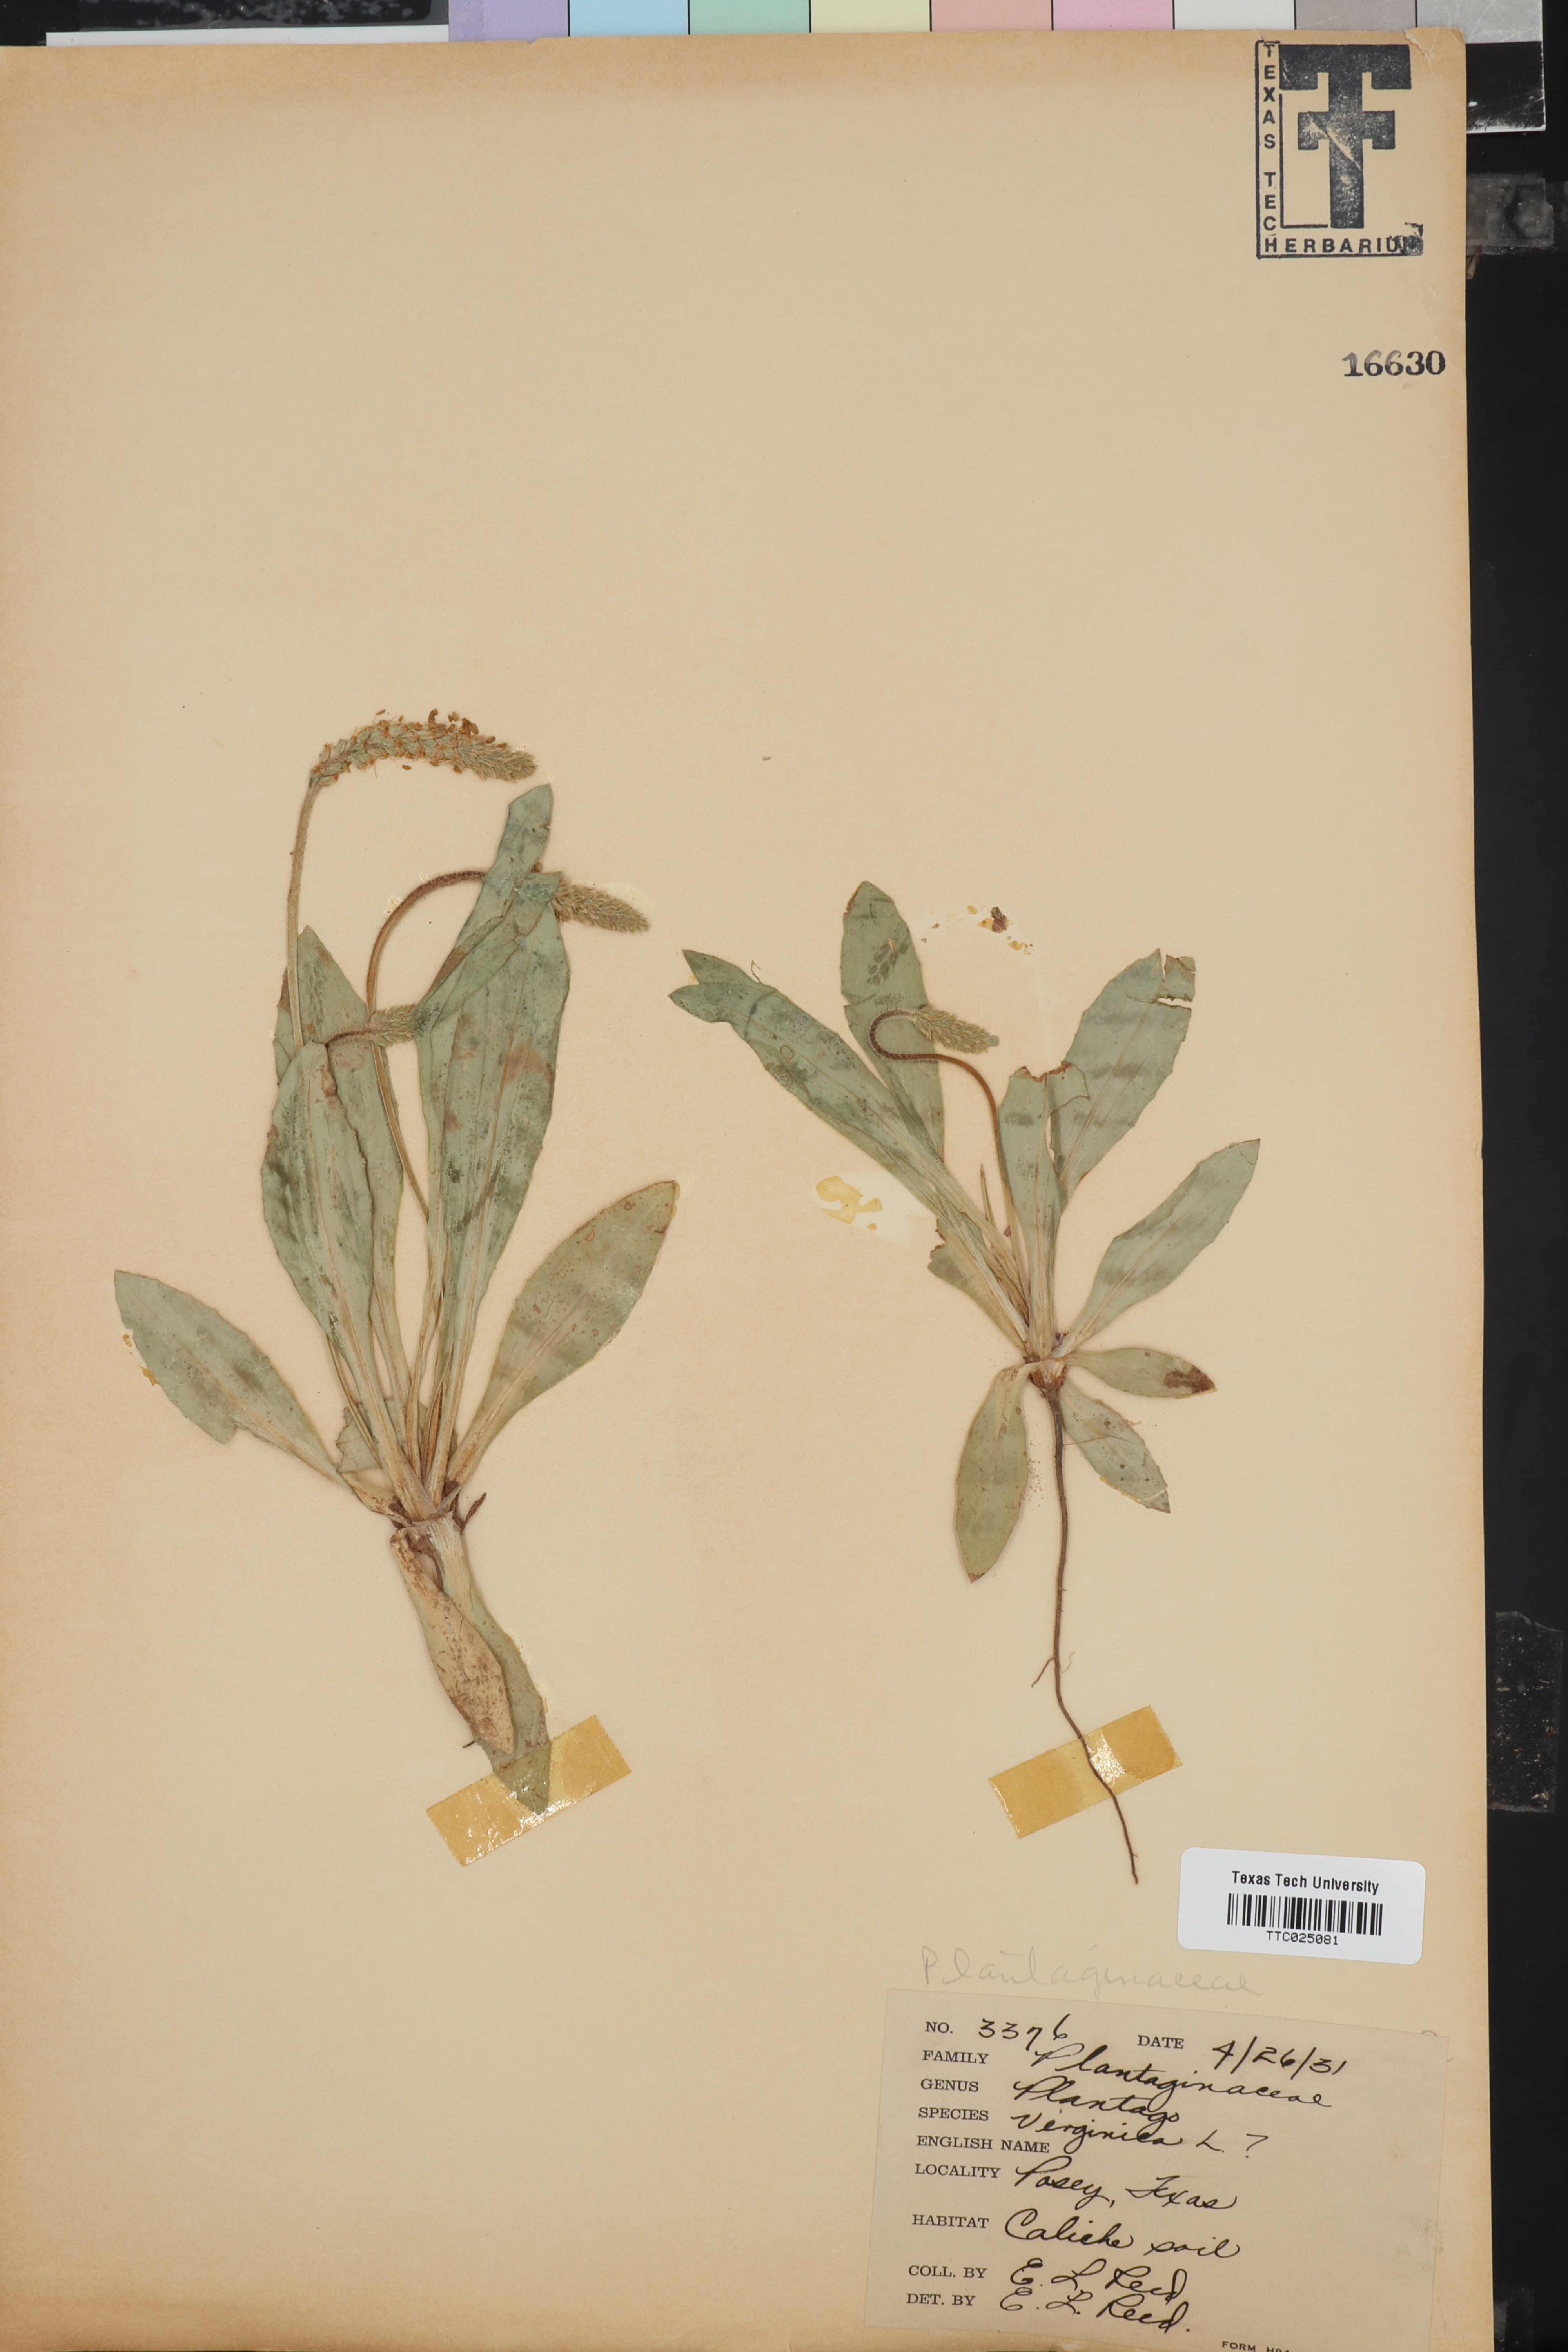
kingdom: Plantae
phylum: Tracheophyta
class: Magnoliopsida
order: Lamiales
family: Plantaginaceae
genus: Plantago
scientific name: Plantago virginica
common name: Hoary plantain
